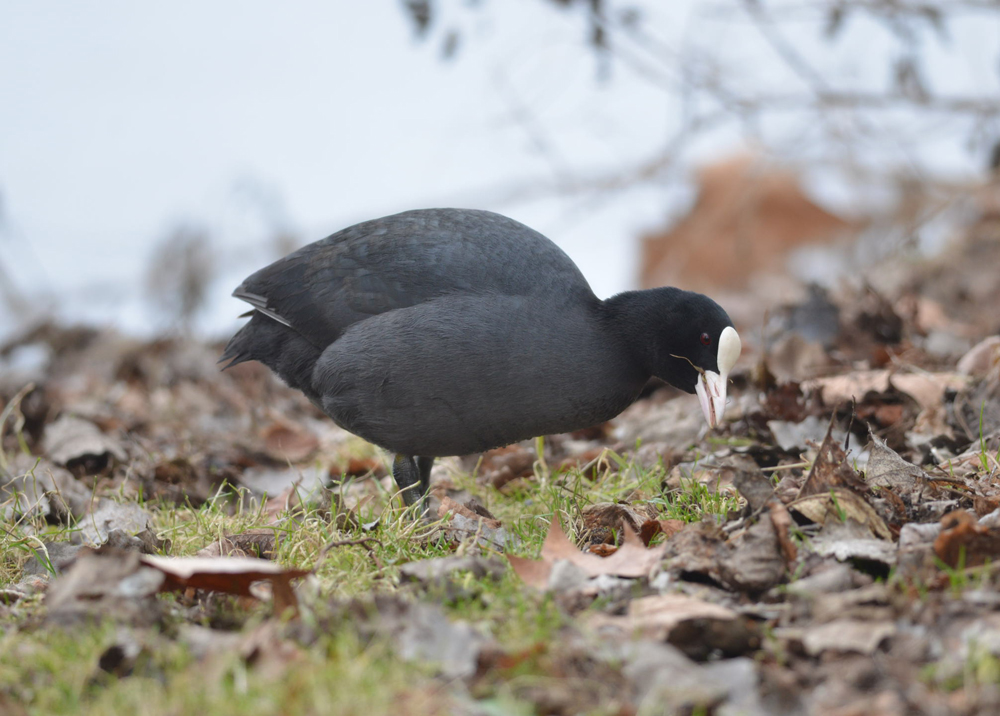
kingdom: Animalia
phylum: Chordata
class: Aves
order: Gruiformes
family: Rallidae
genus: Fulica
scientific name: Fulica atra
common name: Eurasian coot
